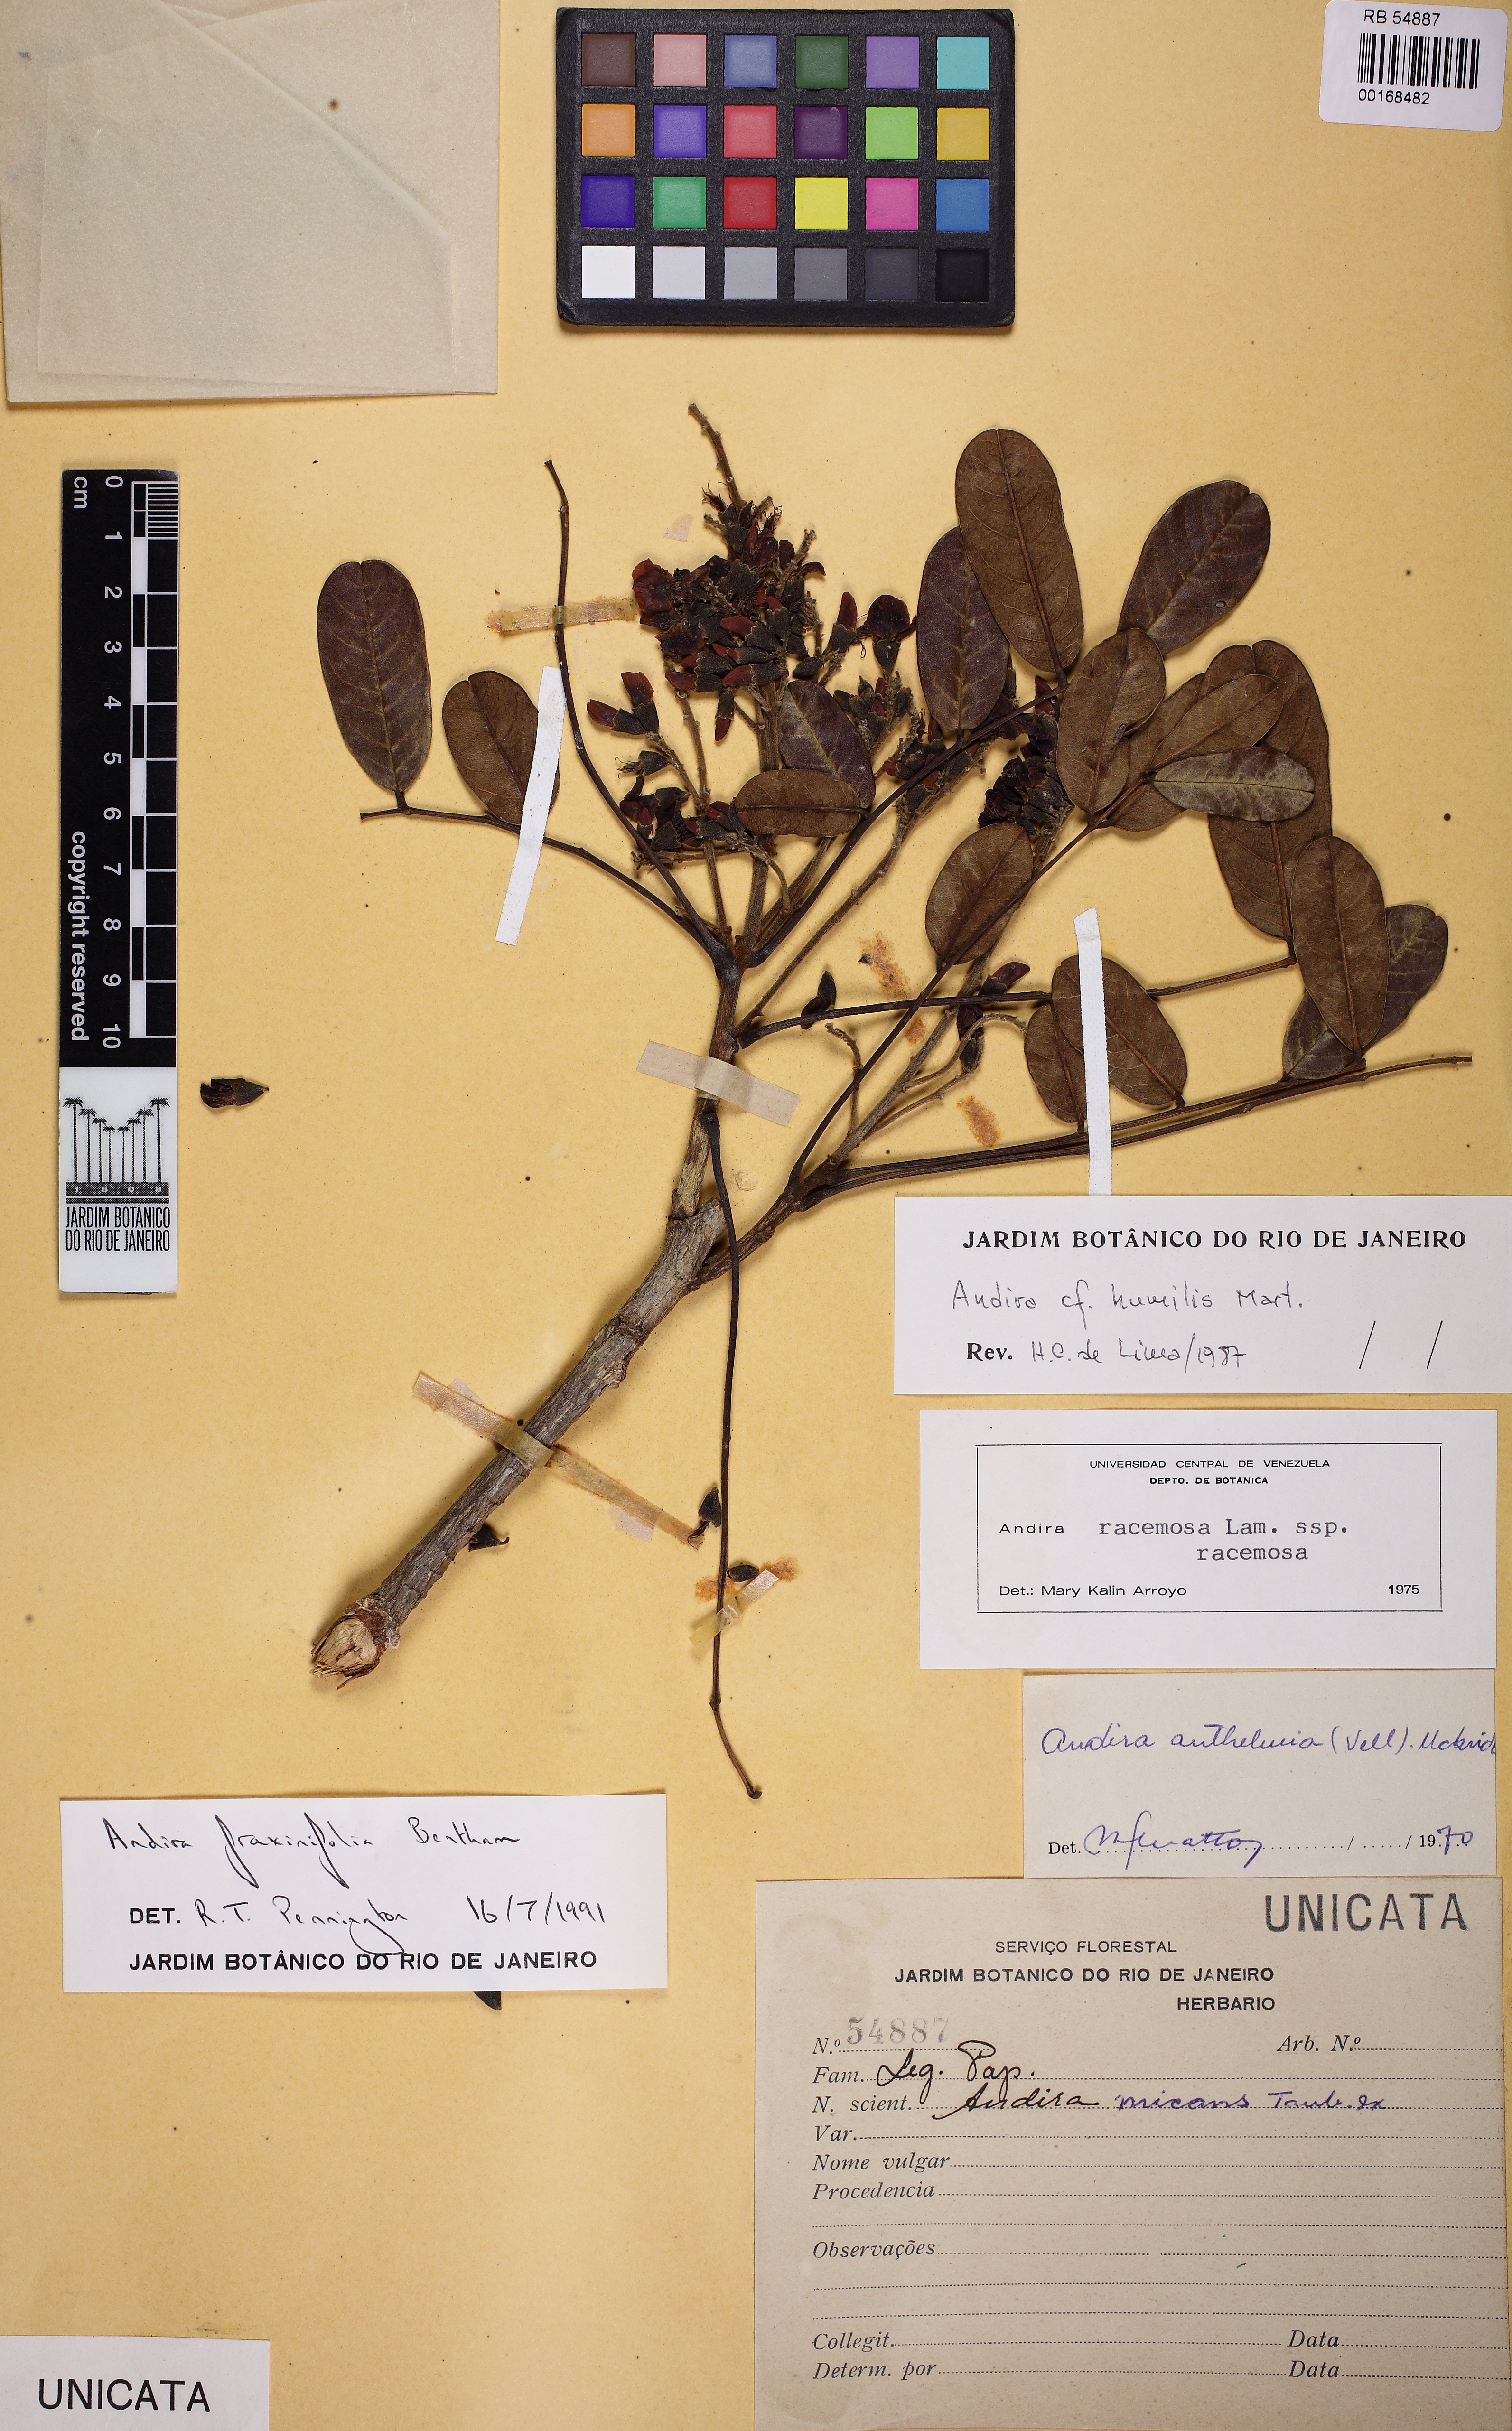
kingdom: Plantae
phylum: Tracheophyta
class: Magnoliopsida
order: Fabales
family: Fabaceae
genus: Andira
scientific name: Andira fraxinifolia
